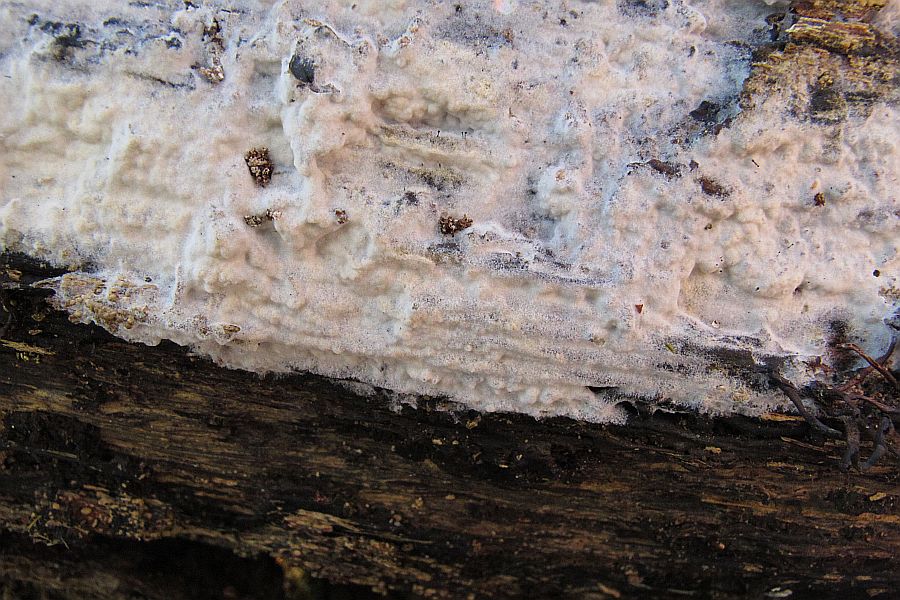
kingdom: Fungi
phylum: Basidiomycota
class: Agaricomycetes
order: Polyporales
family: Phanerochaetaceae
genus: Phanerochaete
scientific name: Phanerochaete velutina
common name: dunet randtråd
